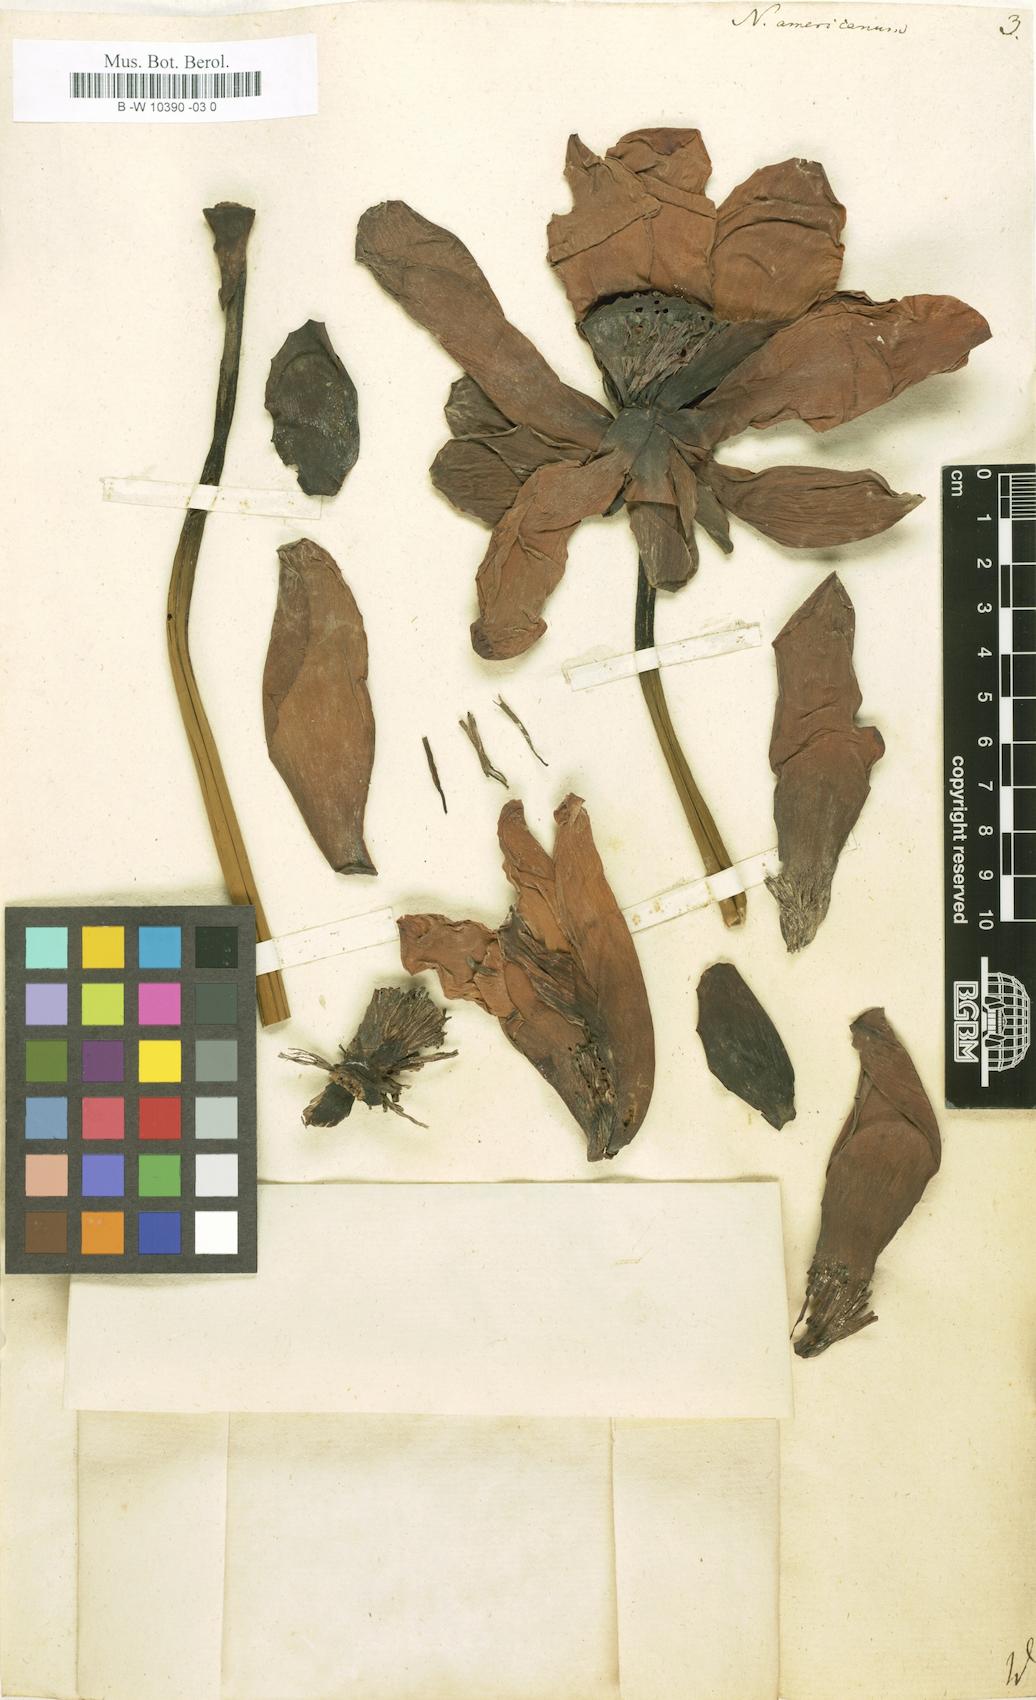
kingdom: Plantae
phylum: Tracheophyta
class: Magnoliopsida
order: Proteales
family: Nelumbonaceae
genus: Nelumbo
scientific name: Nelumbo
